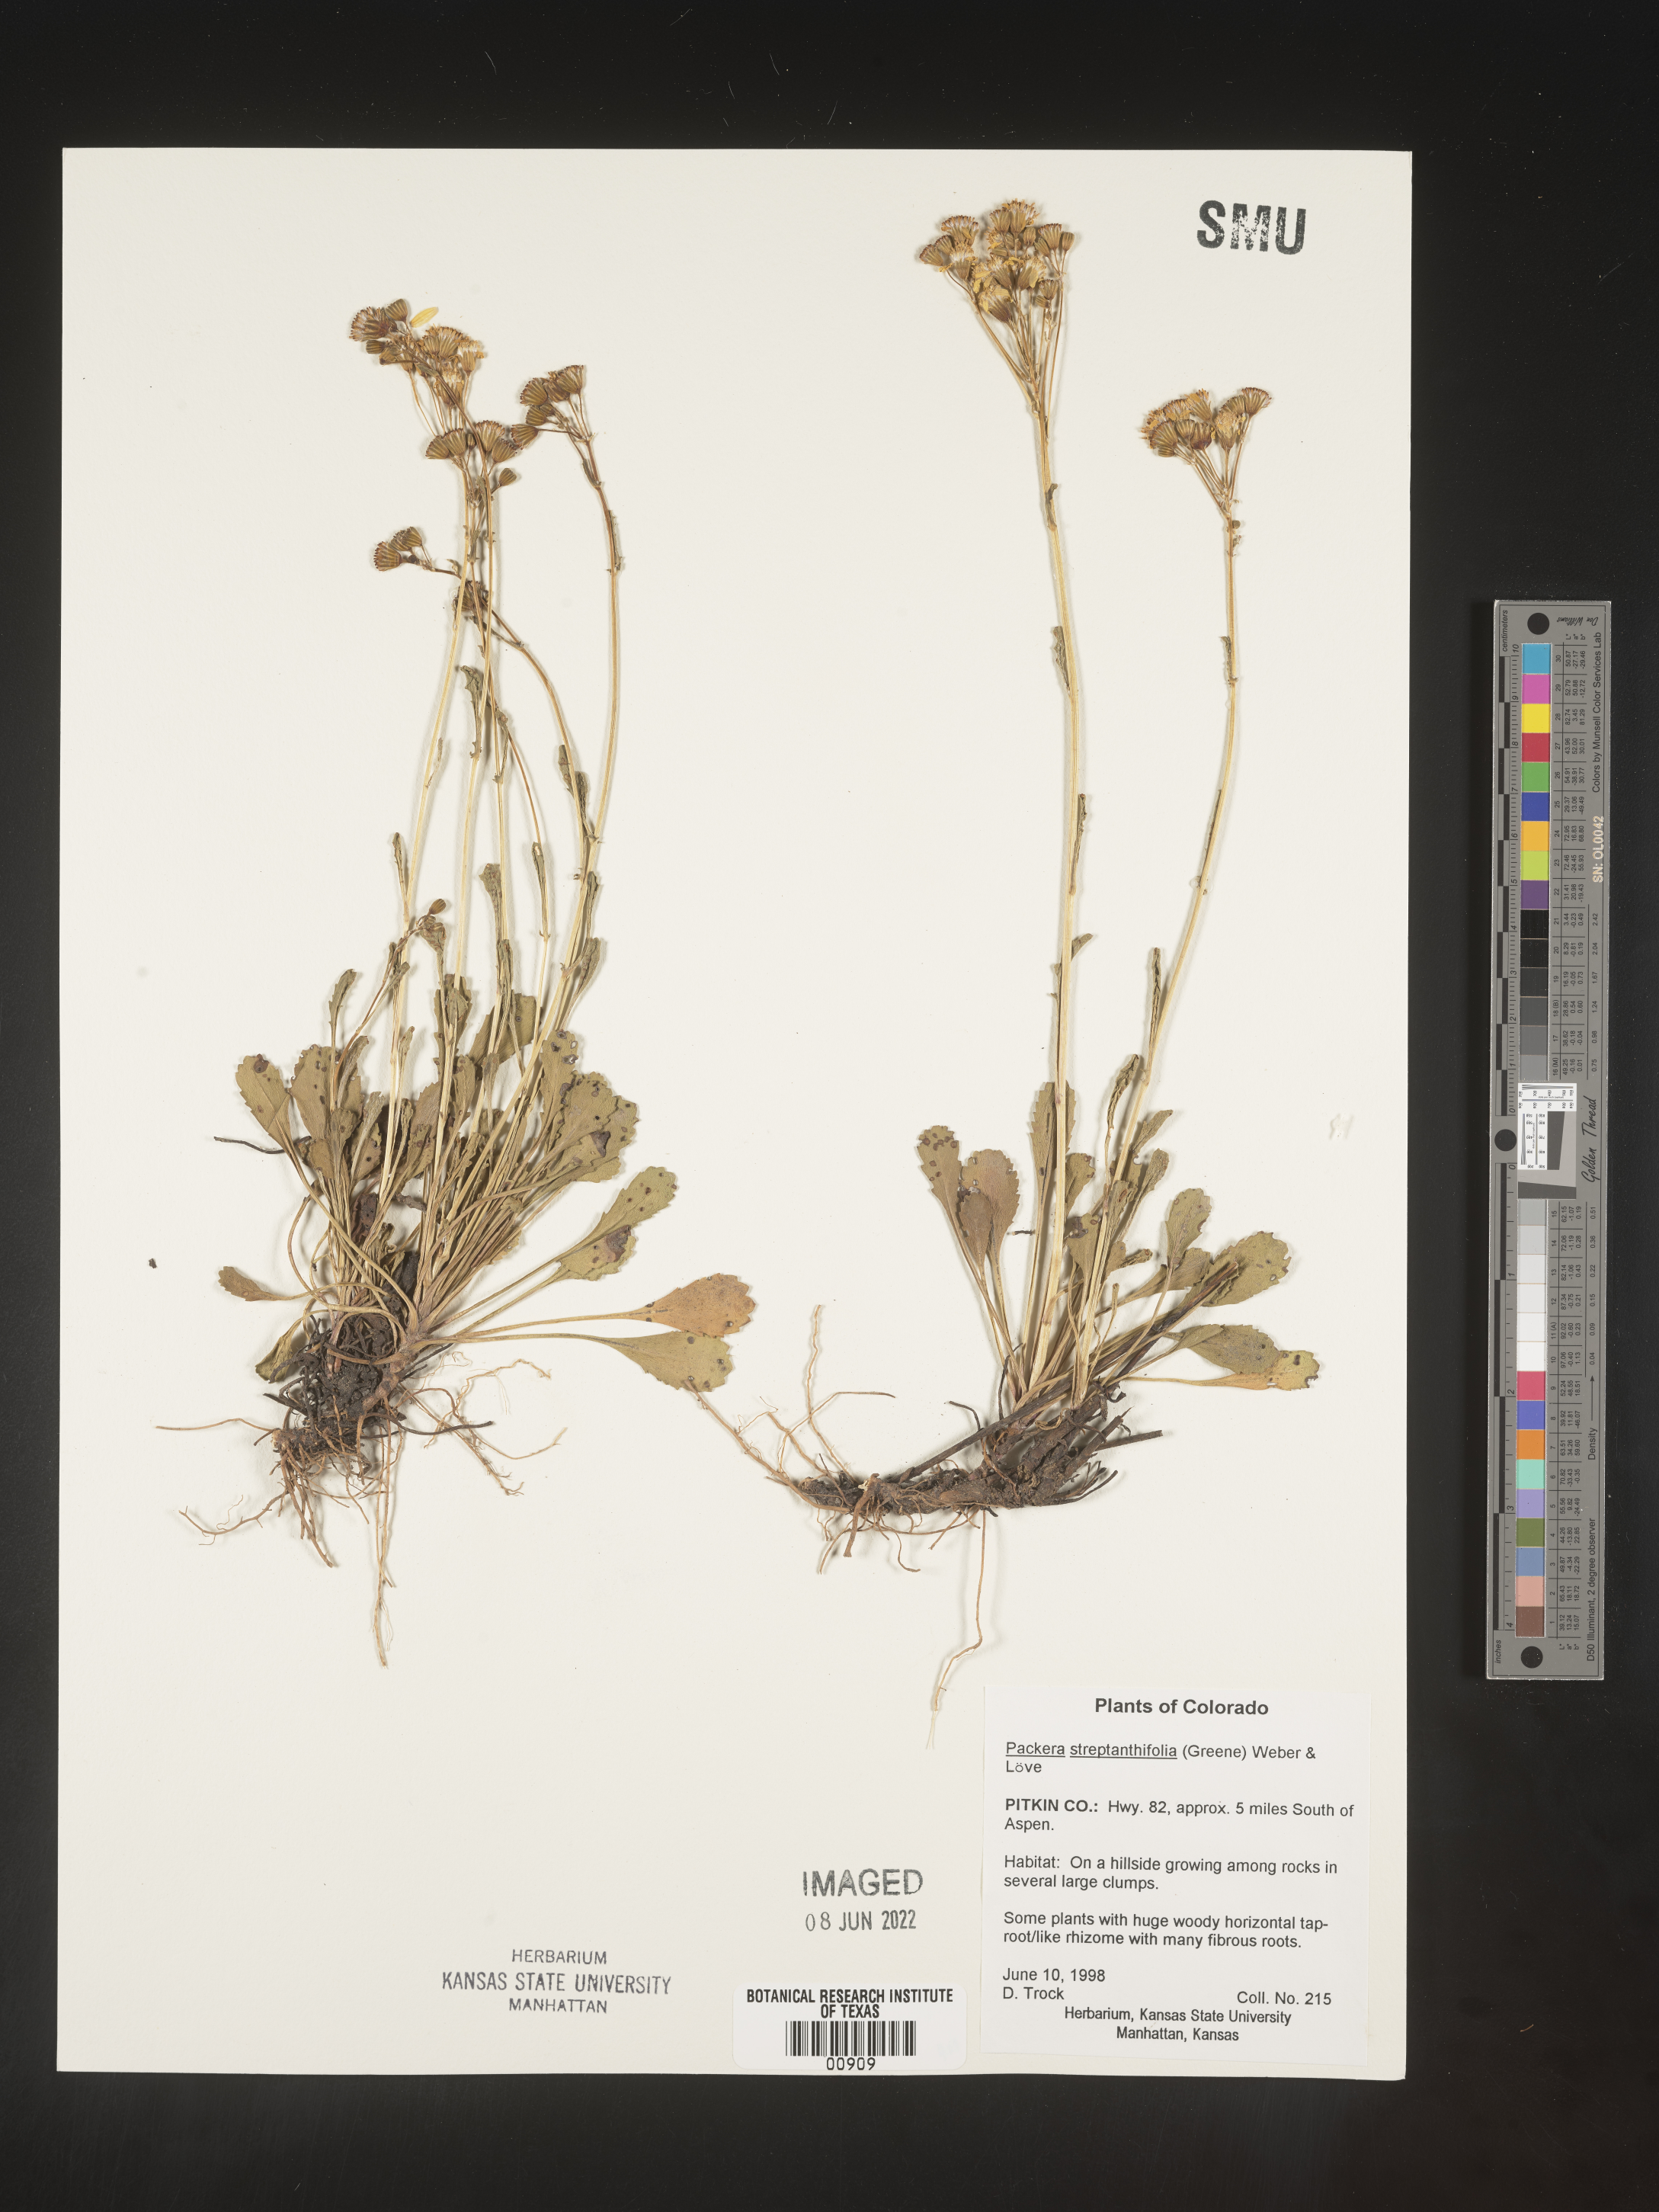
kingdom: Plantae
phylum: Tracheophyta
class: Magnoliopsida
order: Asterales
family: Asteraceae
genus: Packera
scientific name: Packera streptanthifolia
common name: Rocky mountain butterweed
